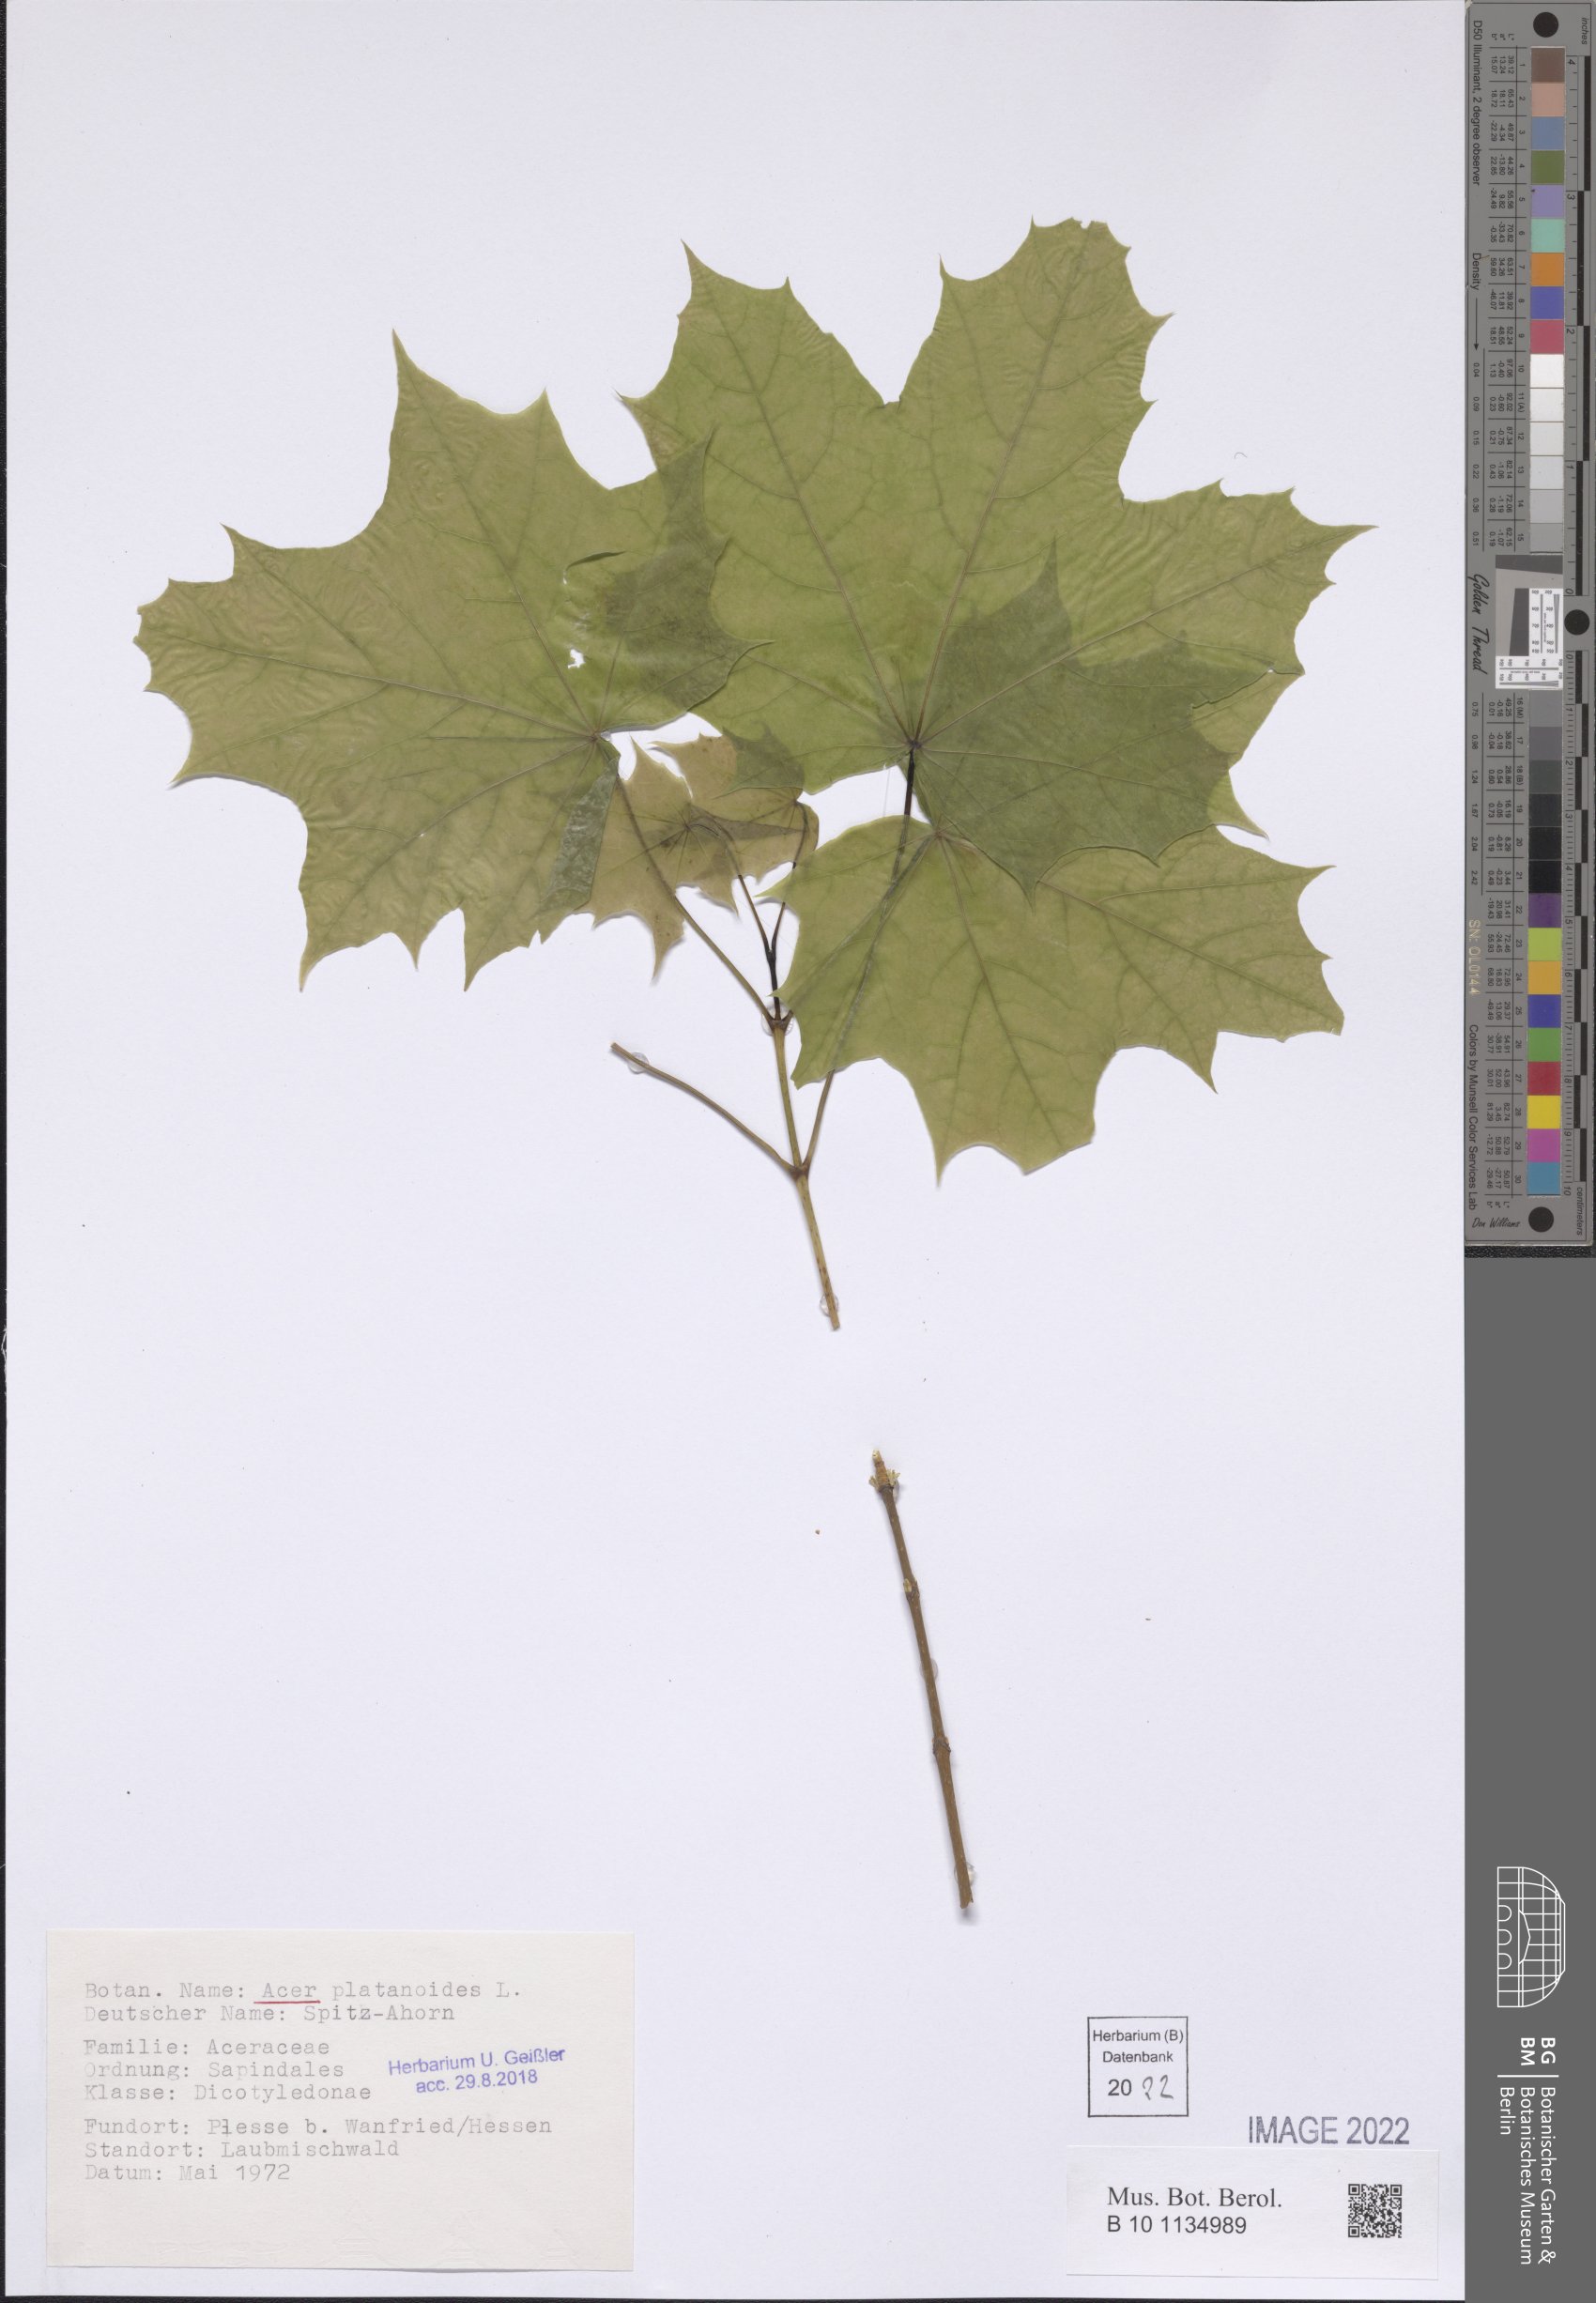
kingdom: Plantae
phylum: Tracheophyta
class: Magnoliopsida
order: Sapindales
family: Sapindaceae
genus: Acer
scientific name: Acer platanoides
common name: Norway maple
